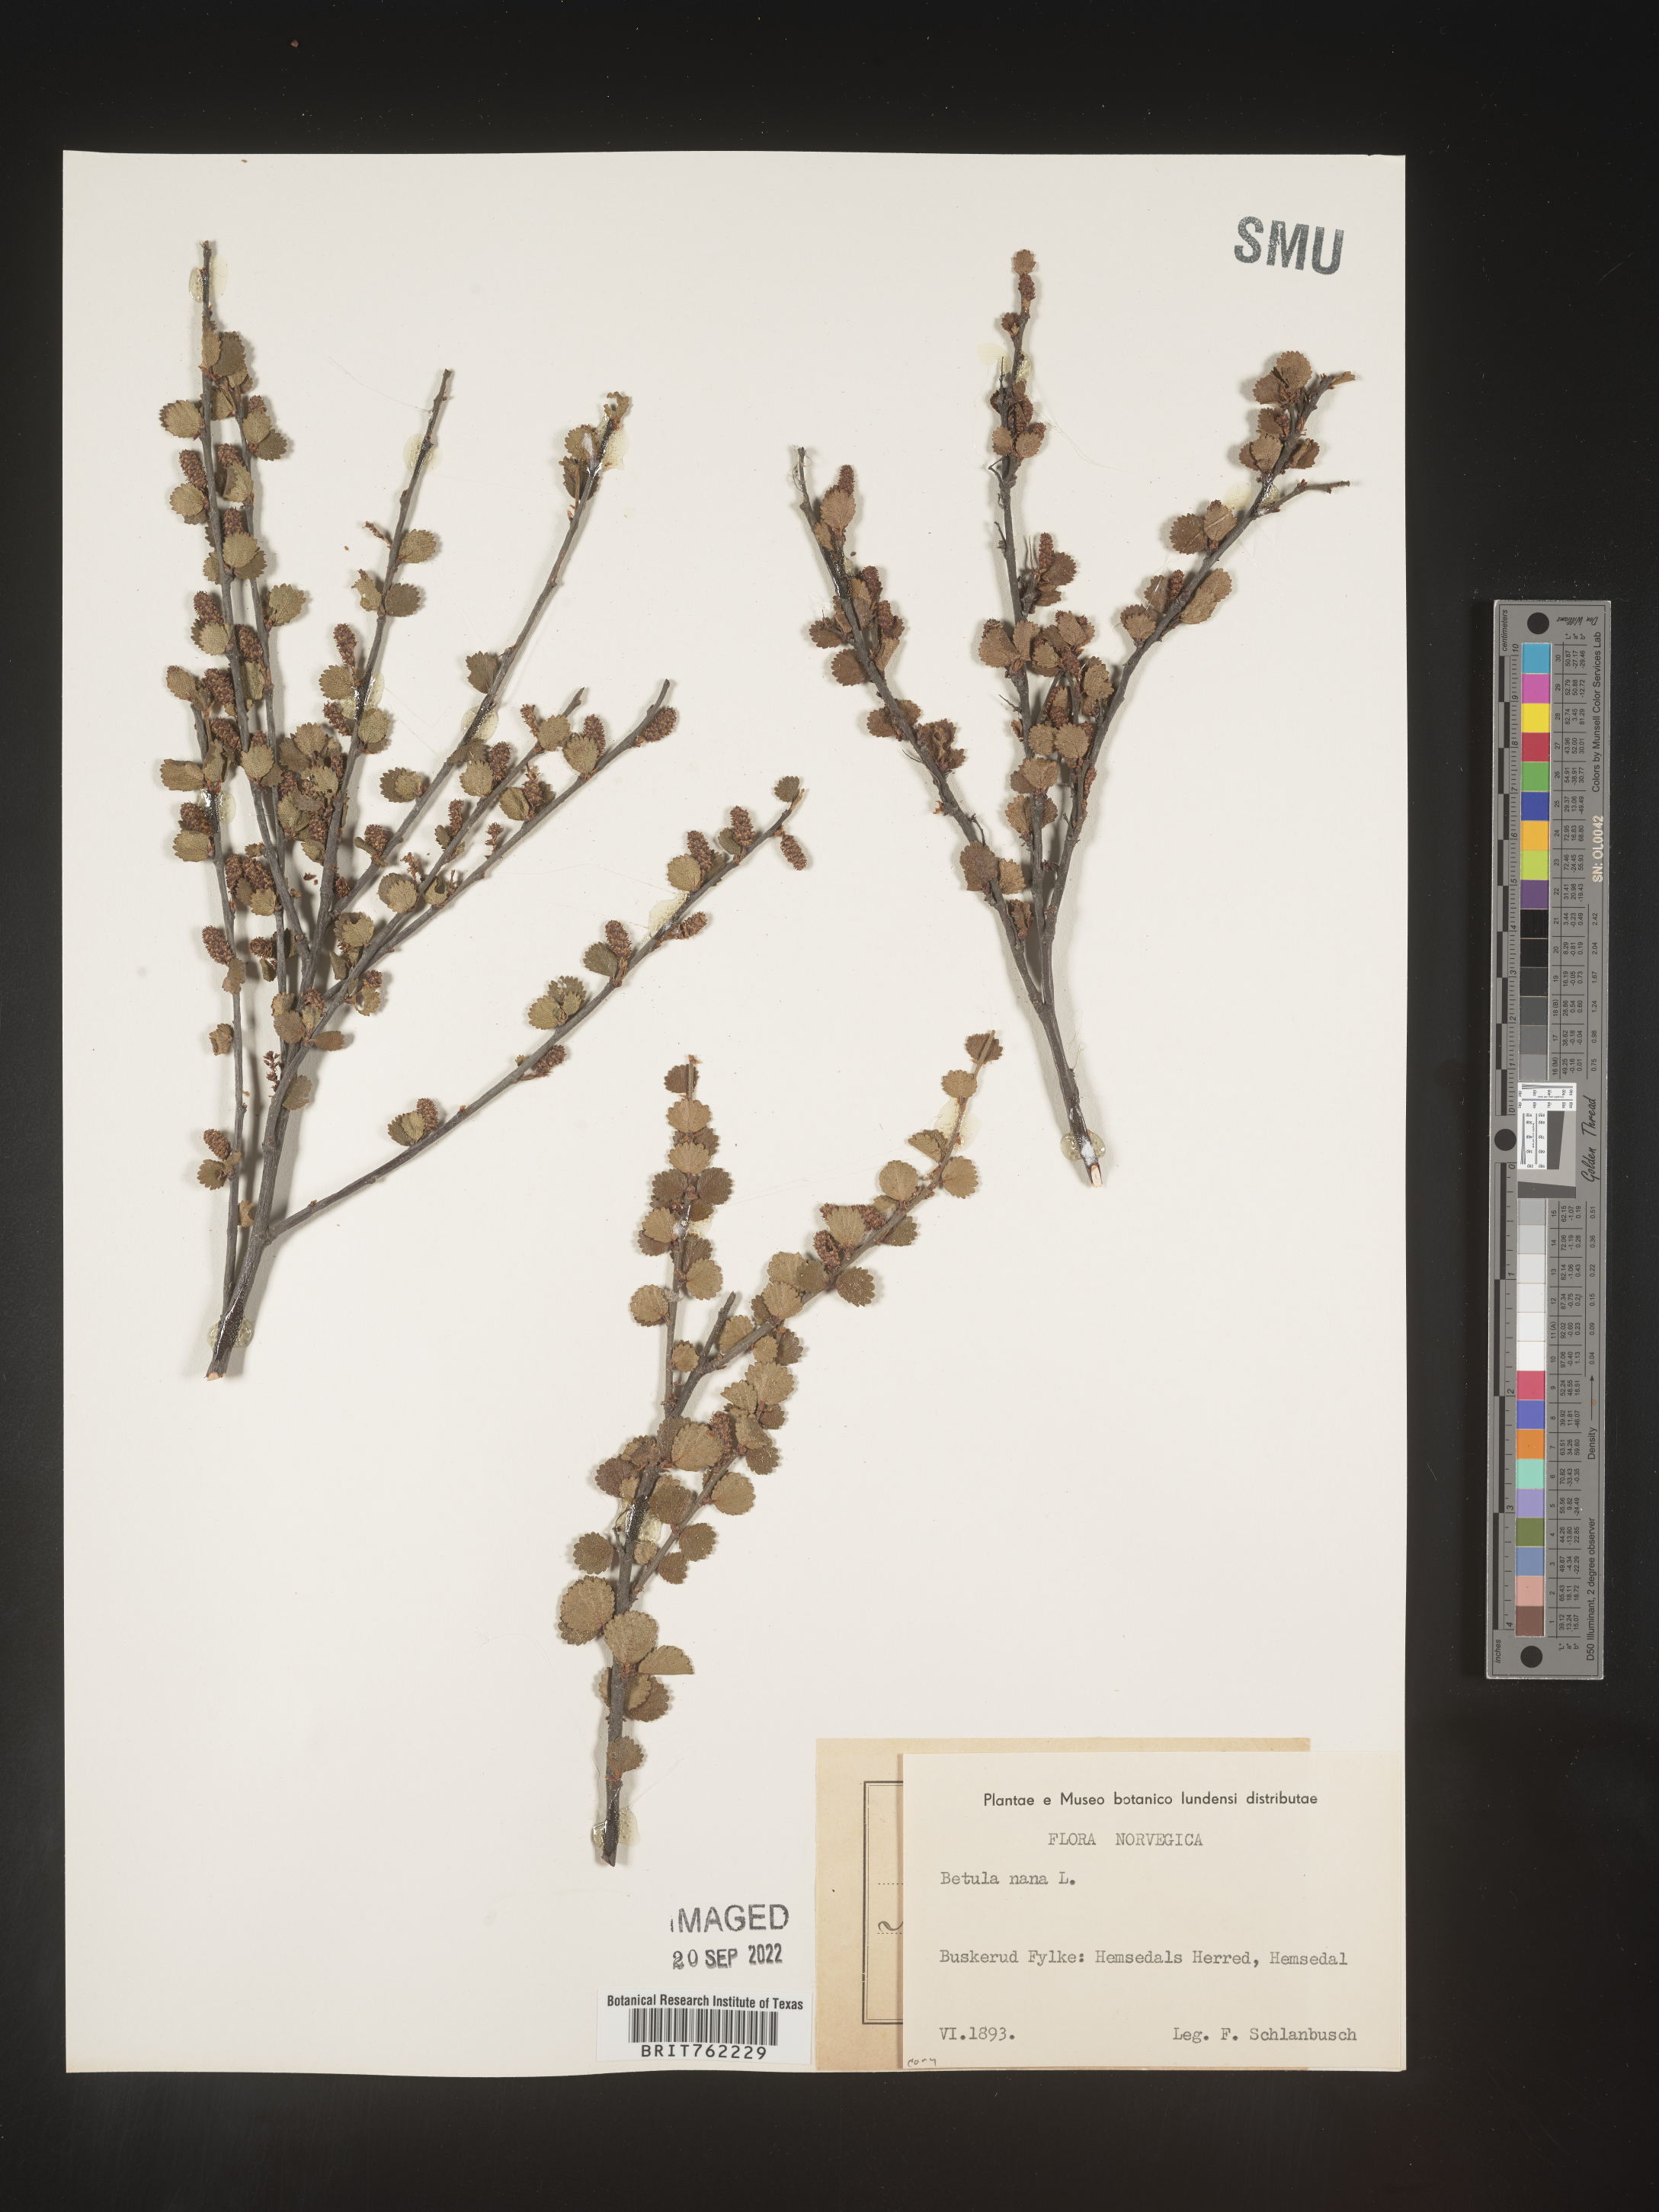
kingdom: Plantae
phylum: Tracheophyta
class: Magnoliopsida
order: Fagales
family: Betulaceae
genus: Betula
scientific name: Betula
